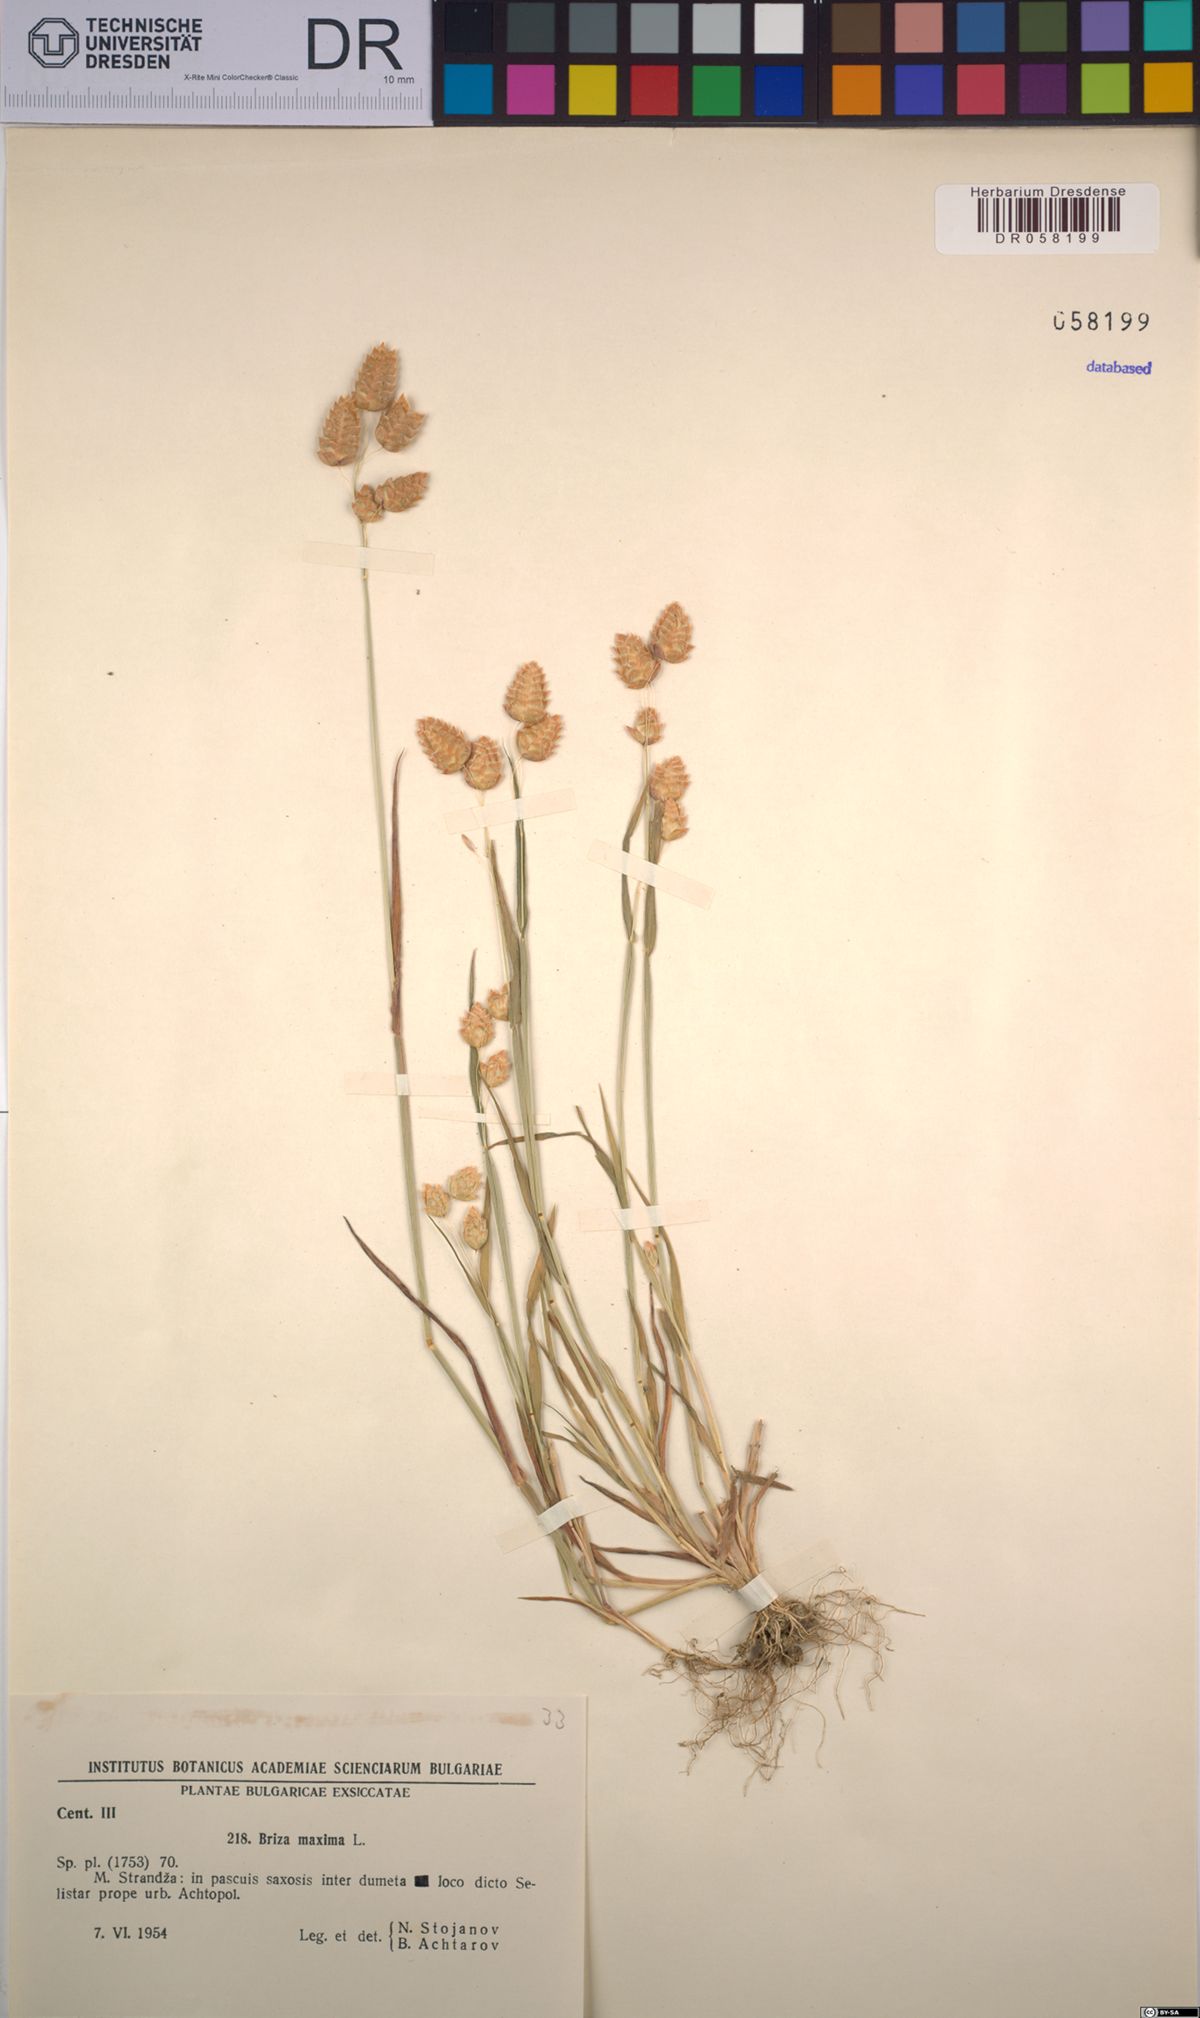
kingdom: Plantae
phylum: Tracheophyta
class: Liliopsida
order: Poales
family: Poaceae
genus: Briza
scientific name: Briza maxima
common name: Big quakinggrass
